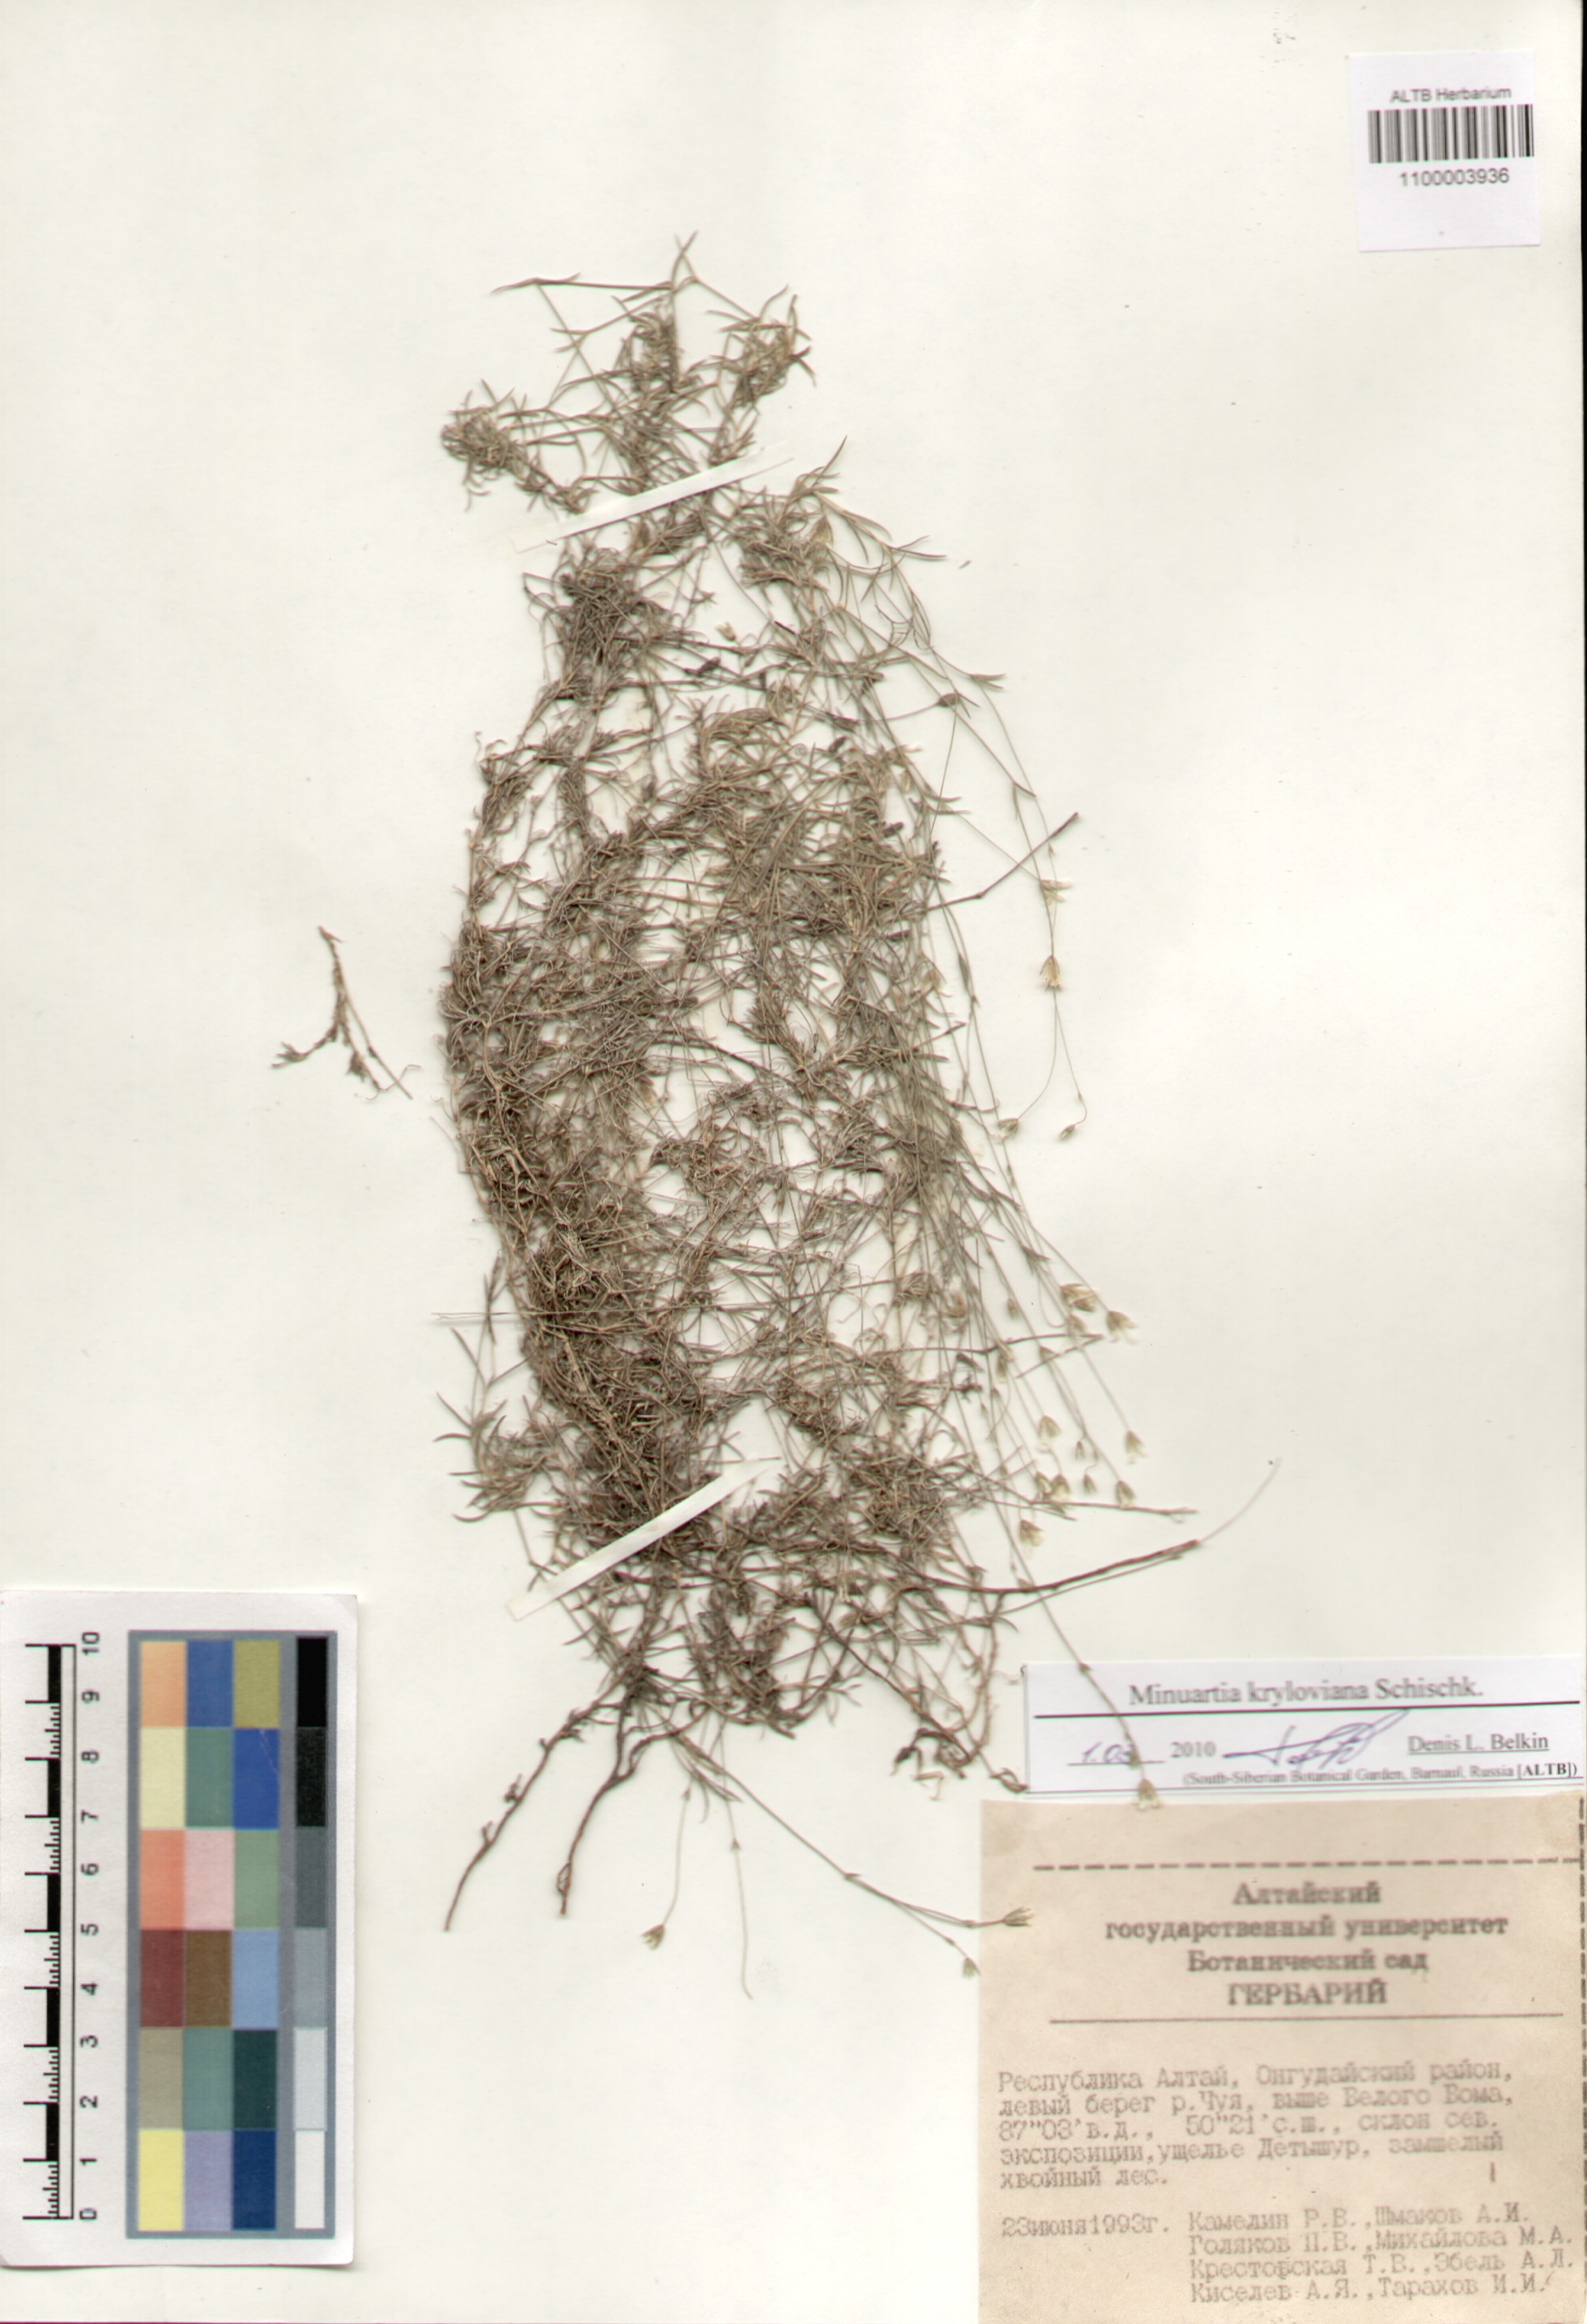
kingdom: Plantae
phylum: Tracheophyta
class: Magnoliopsida
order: Caryophyllales
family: Caryophyllaceae
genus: Sabulina
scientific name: Sabulina kryloviana
